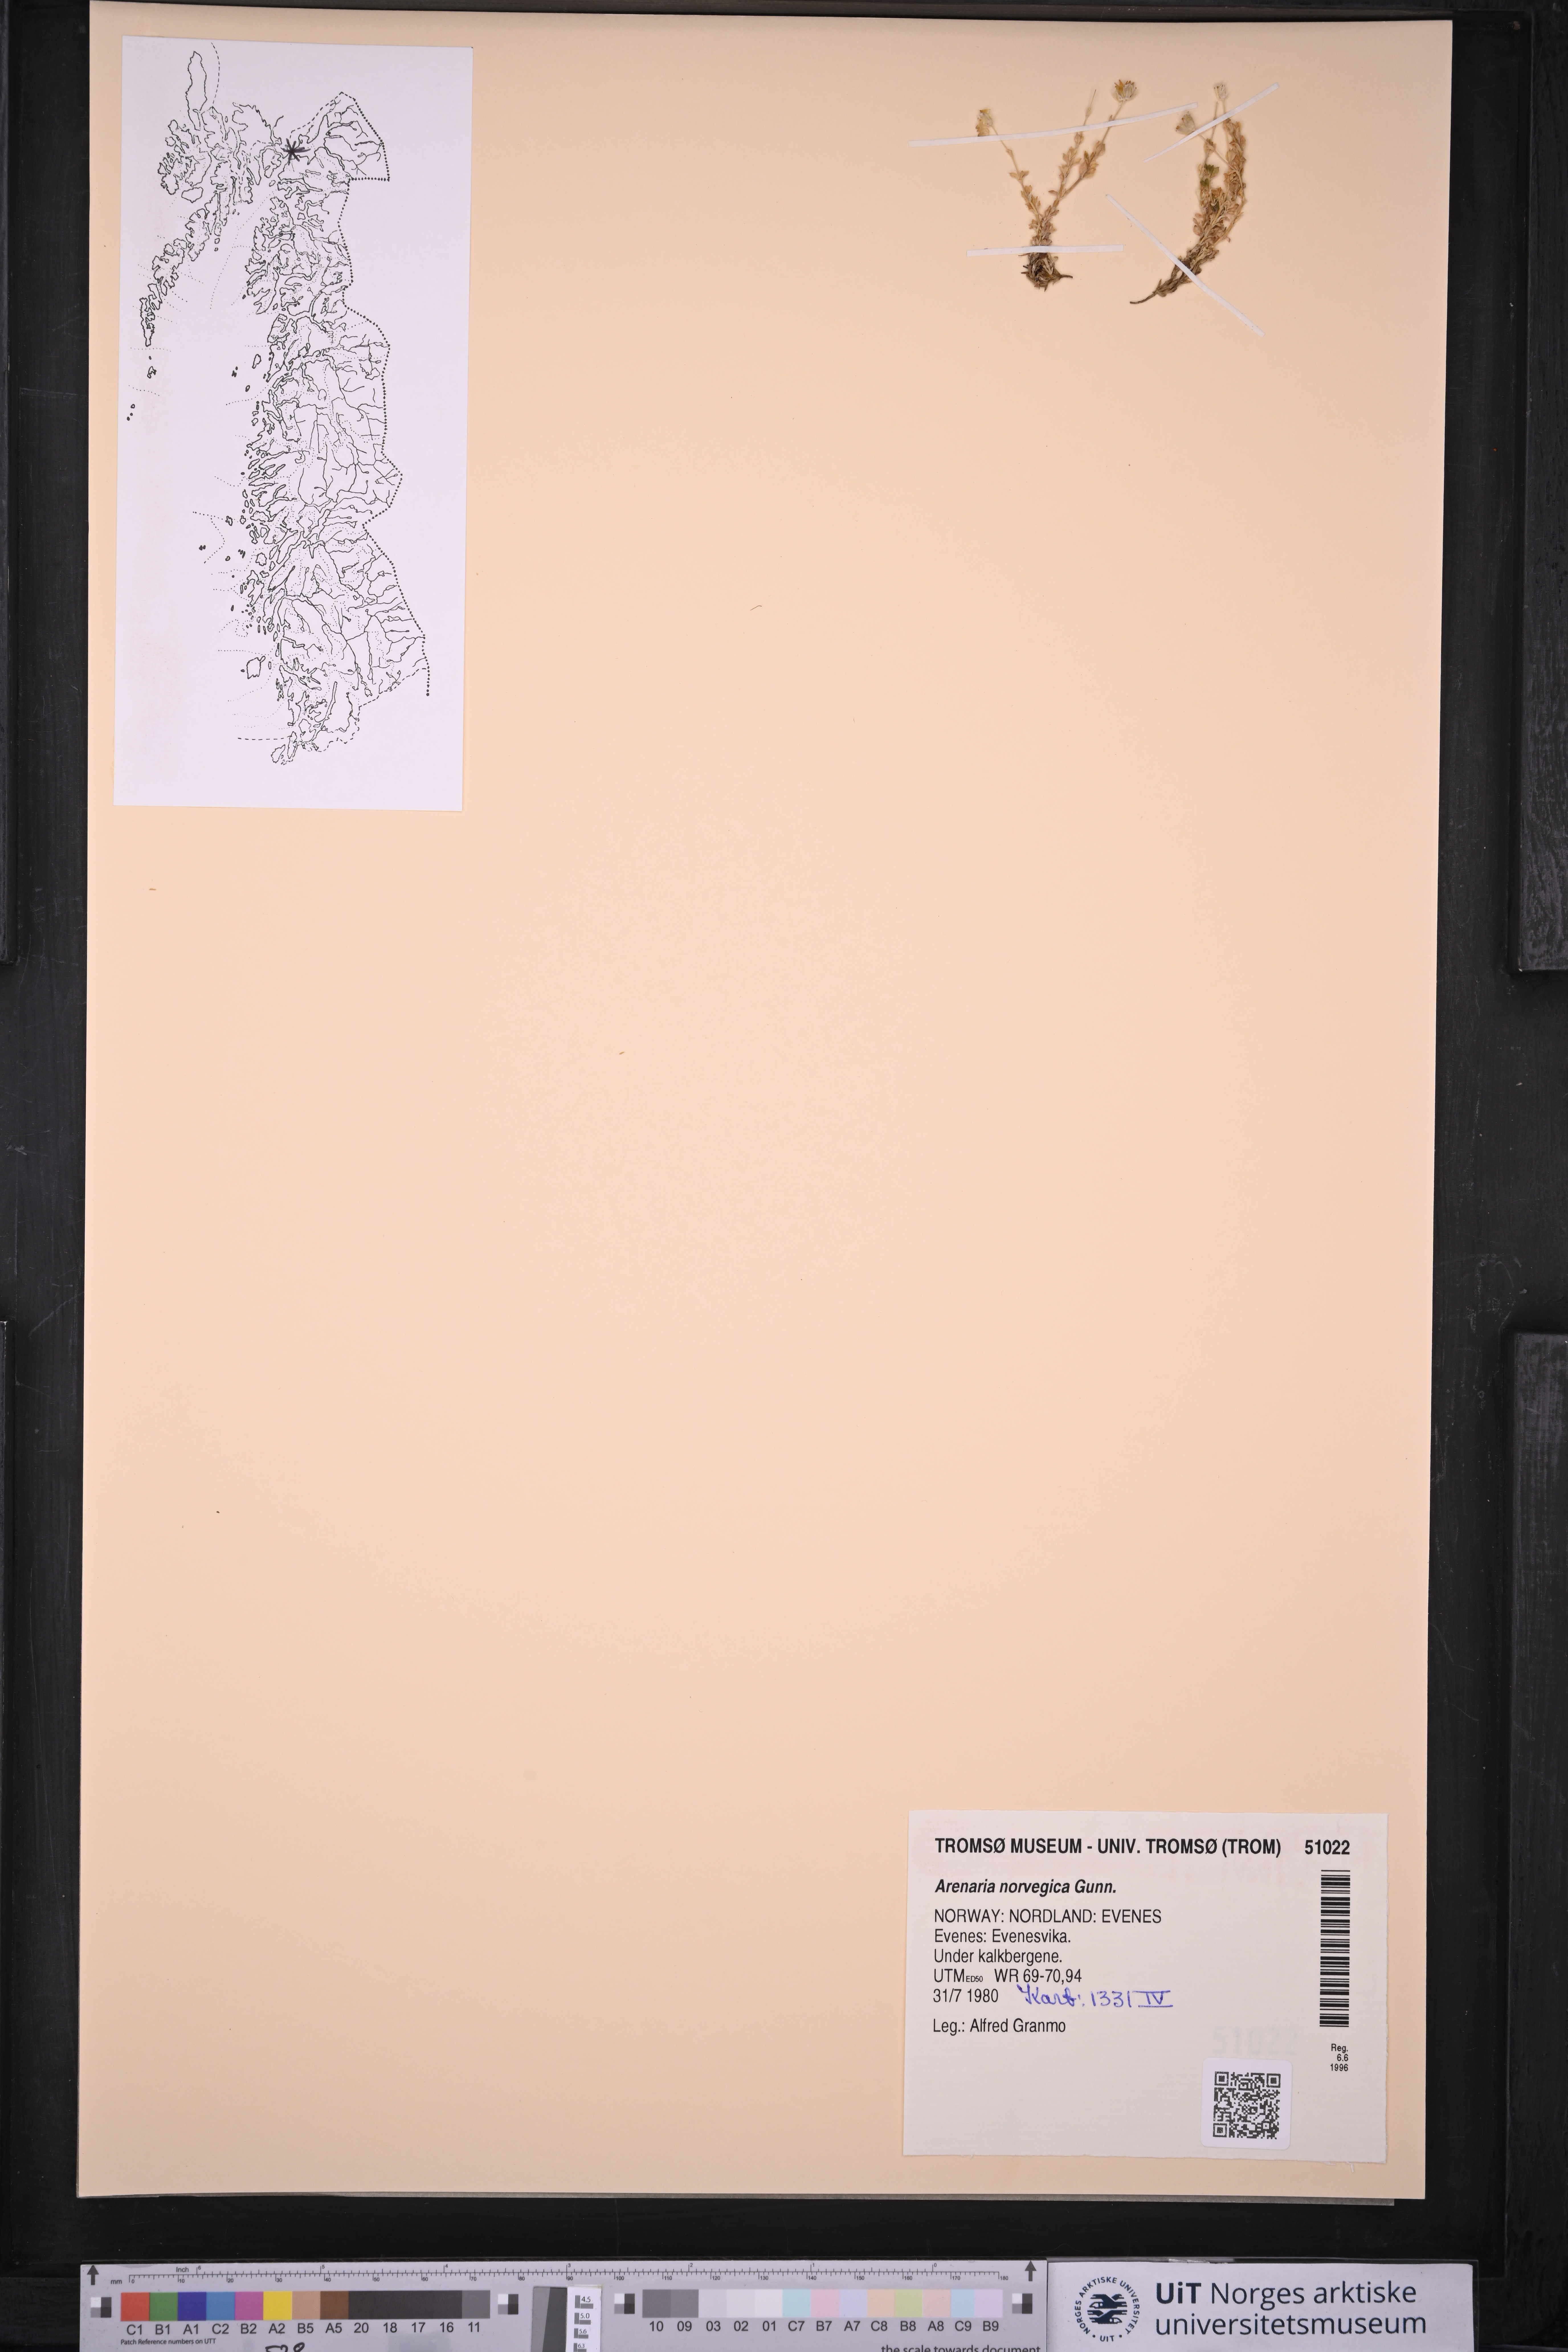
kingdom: Plantae
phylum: Tracheophyta
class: Magnoliopsida
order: Caryophyllales
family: Caryophyllaceae
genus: Arenaria
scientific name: Arenaria norvegica
